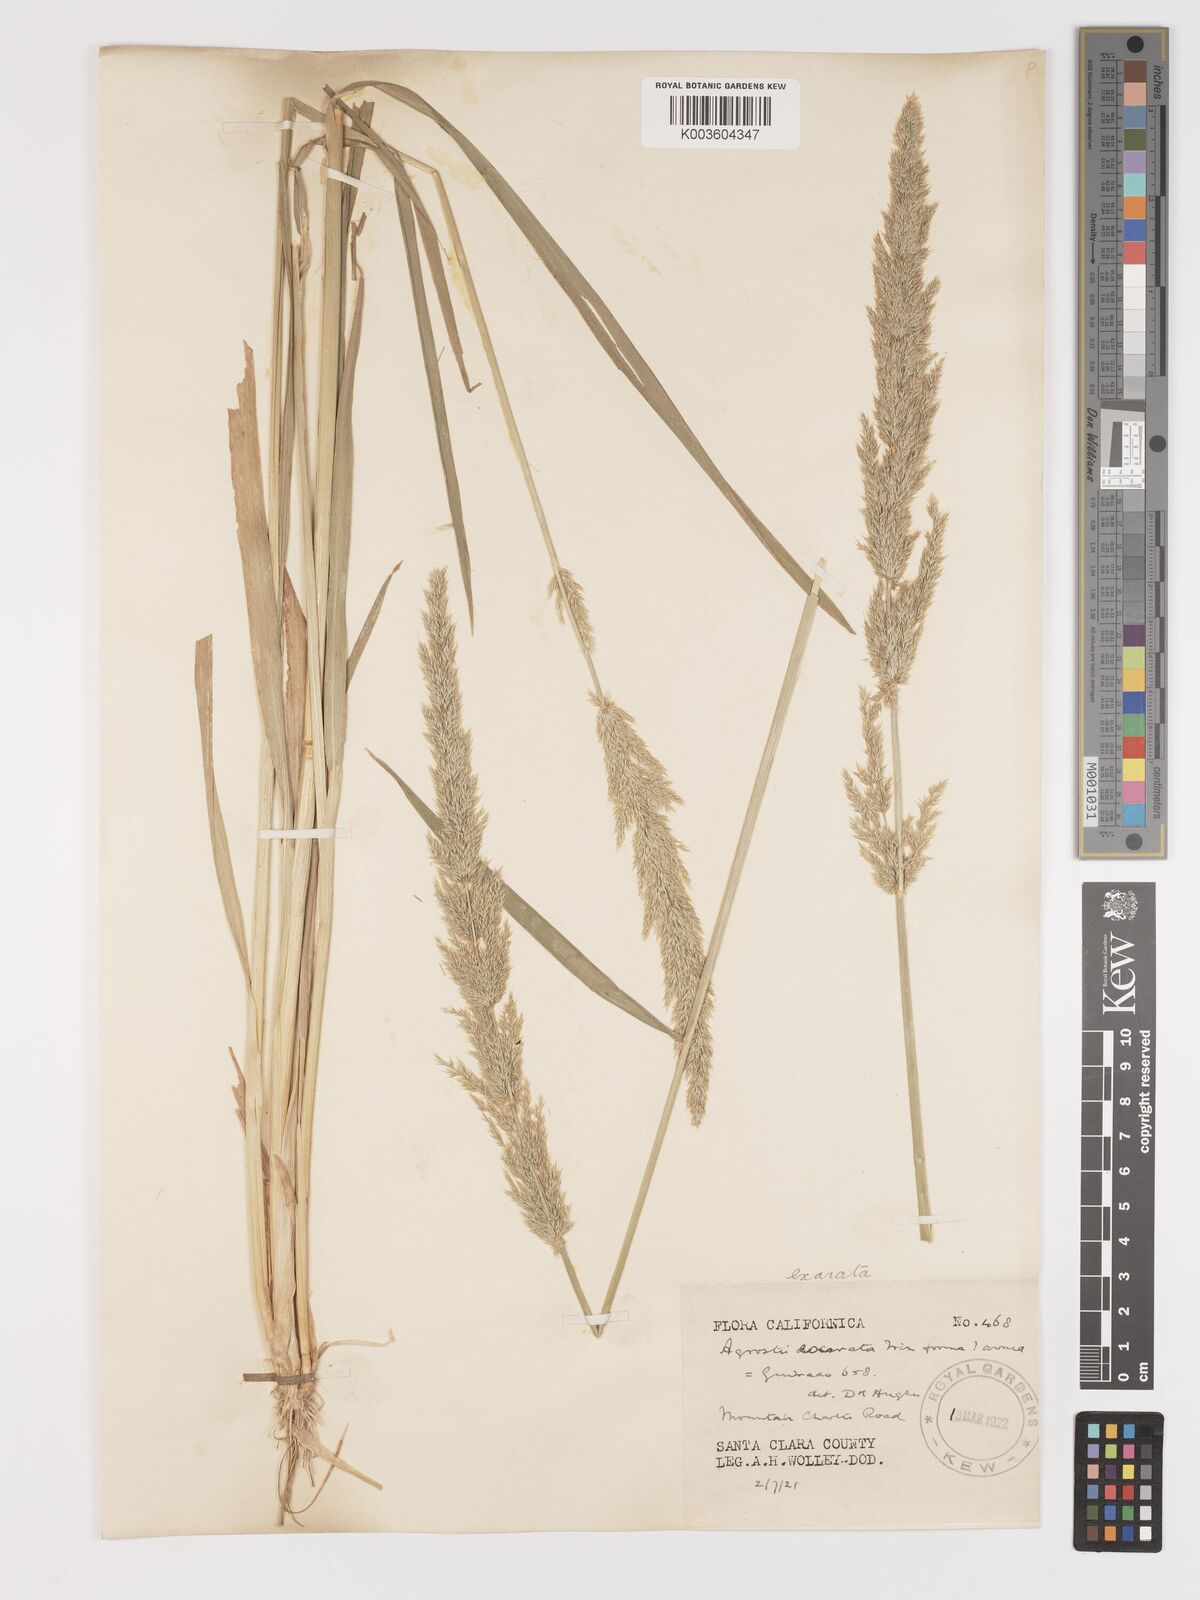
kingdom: Plantae
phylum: Tracheophyta
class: Liliopsida
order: Poales
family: Poaceae
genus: Agrostis
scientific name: Agrostis exarata
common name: Spike bent
